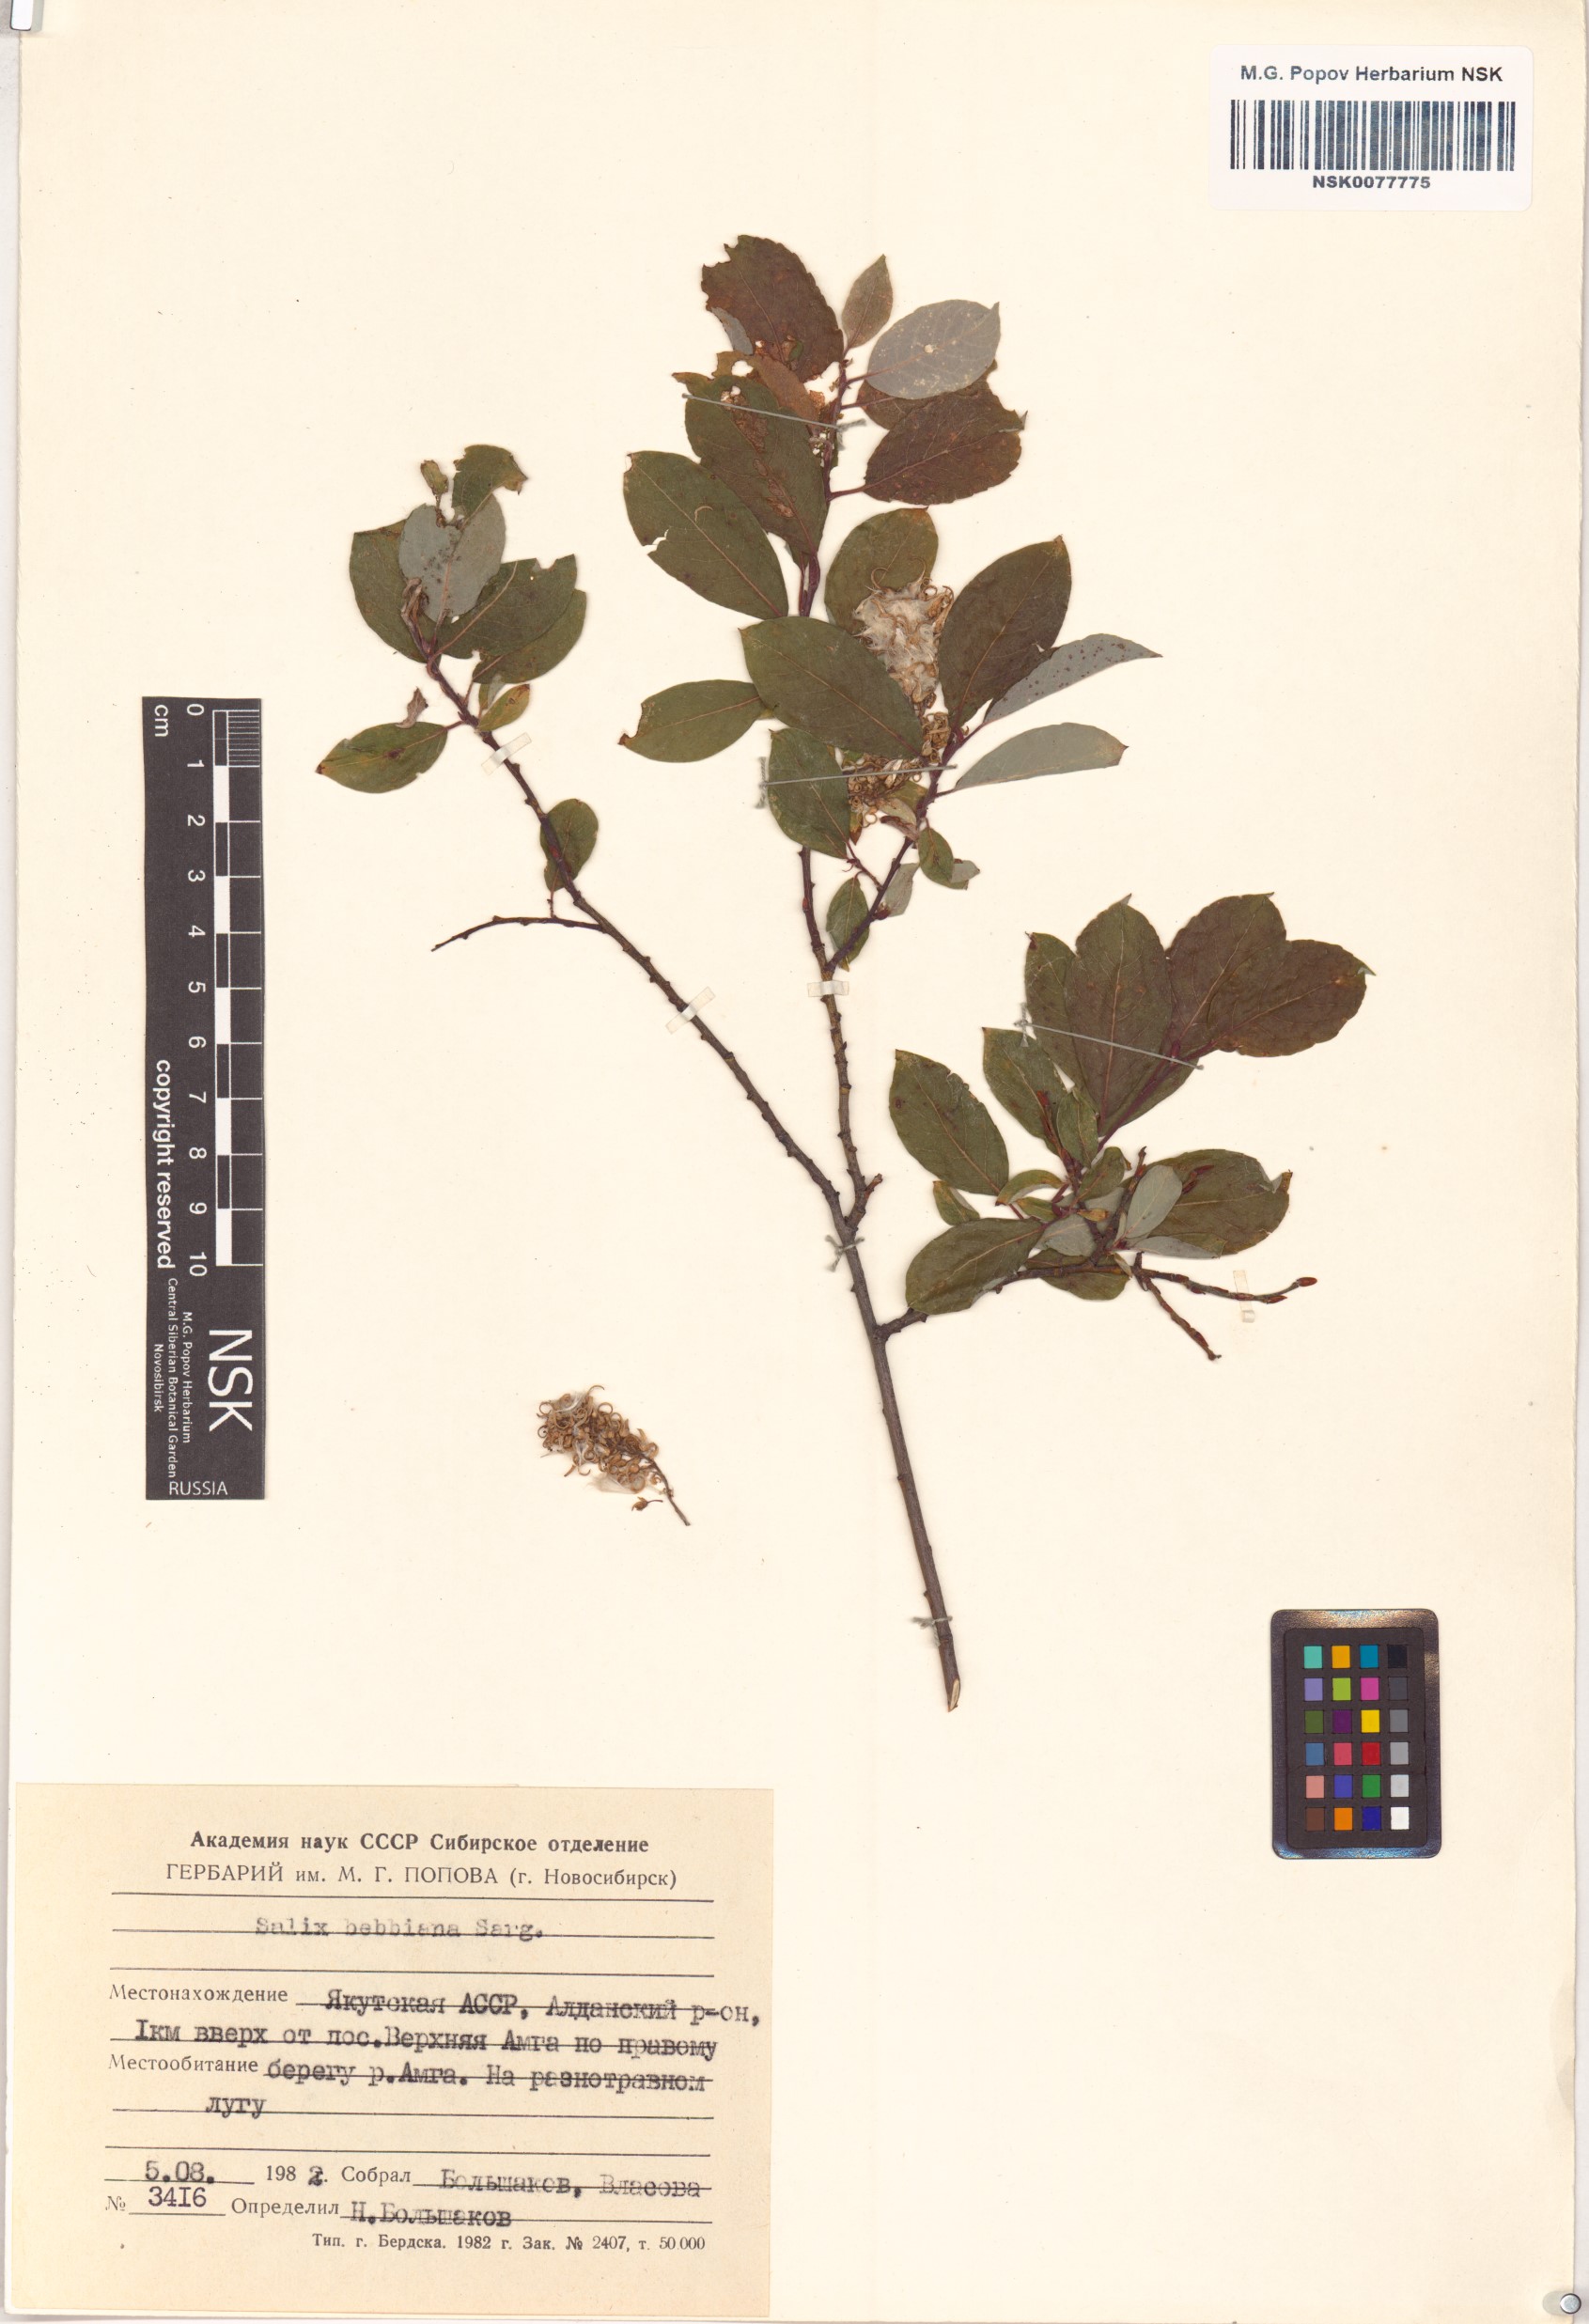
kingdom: Plantae
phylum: Tracheophyta
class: Magnoliopsida
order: Malpighiales
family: Salicaceae
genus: Salix
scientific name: Salix bebbiana
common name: Bebb's willow
